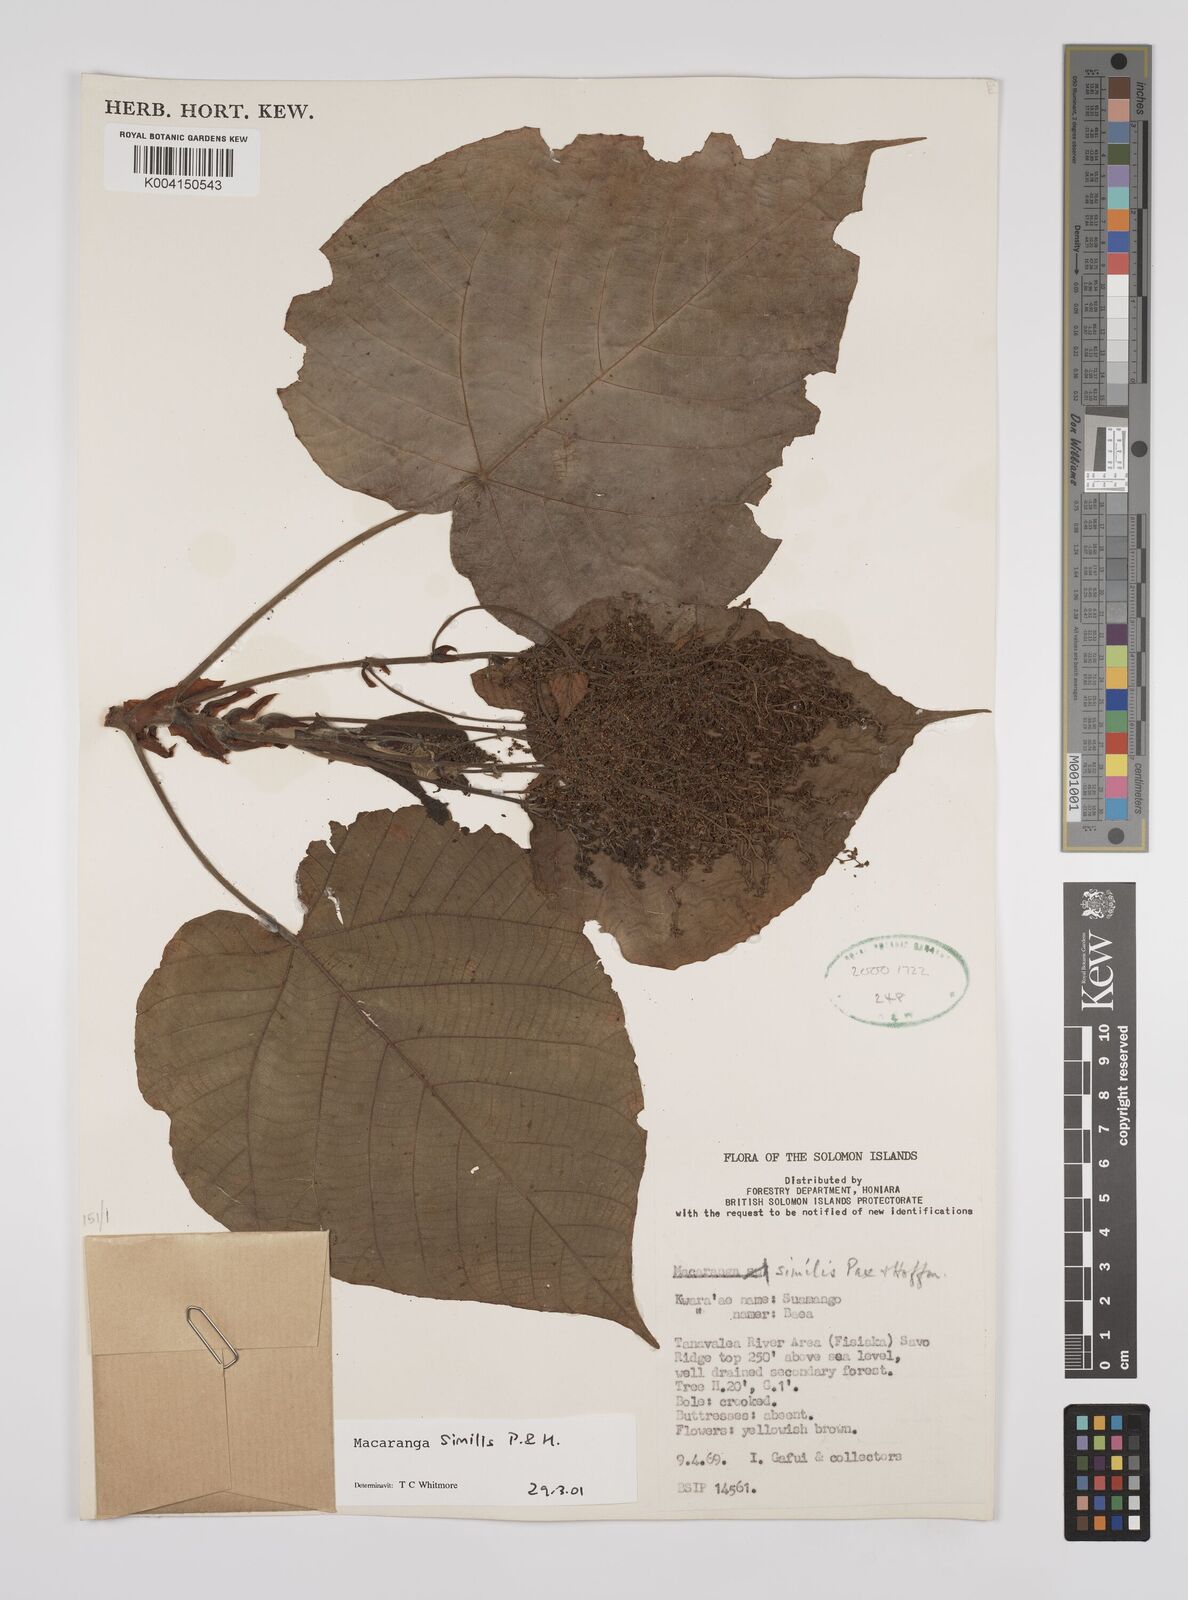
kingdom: Plantae
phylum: Tracheophyta
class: Magnoliopsida
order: Malpighiales
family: Euphorbiaceae
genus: Macaranga
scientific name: Macaranga similis
